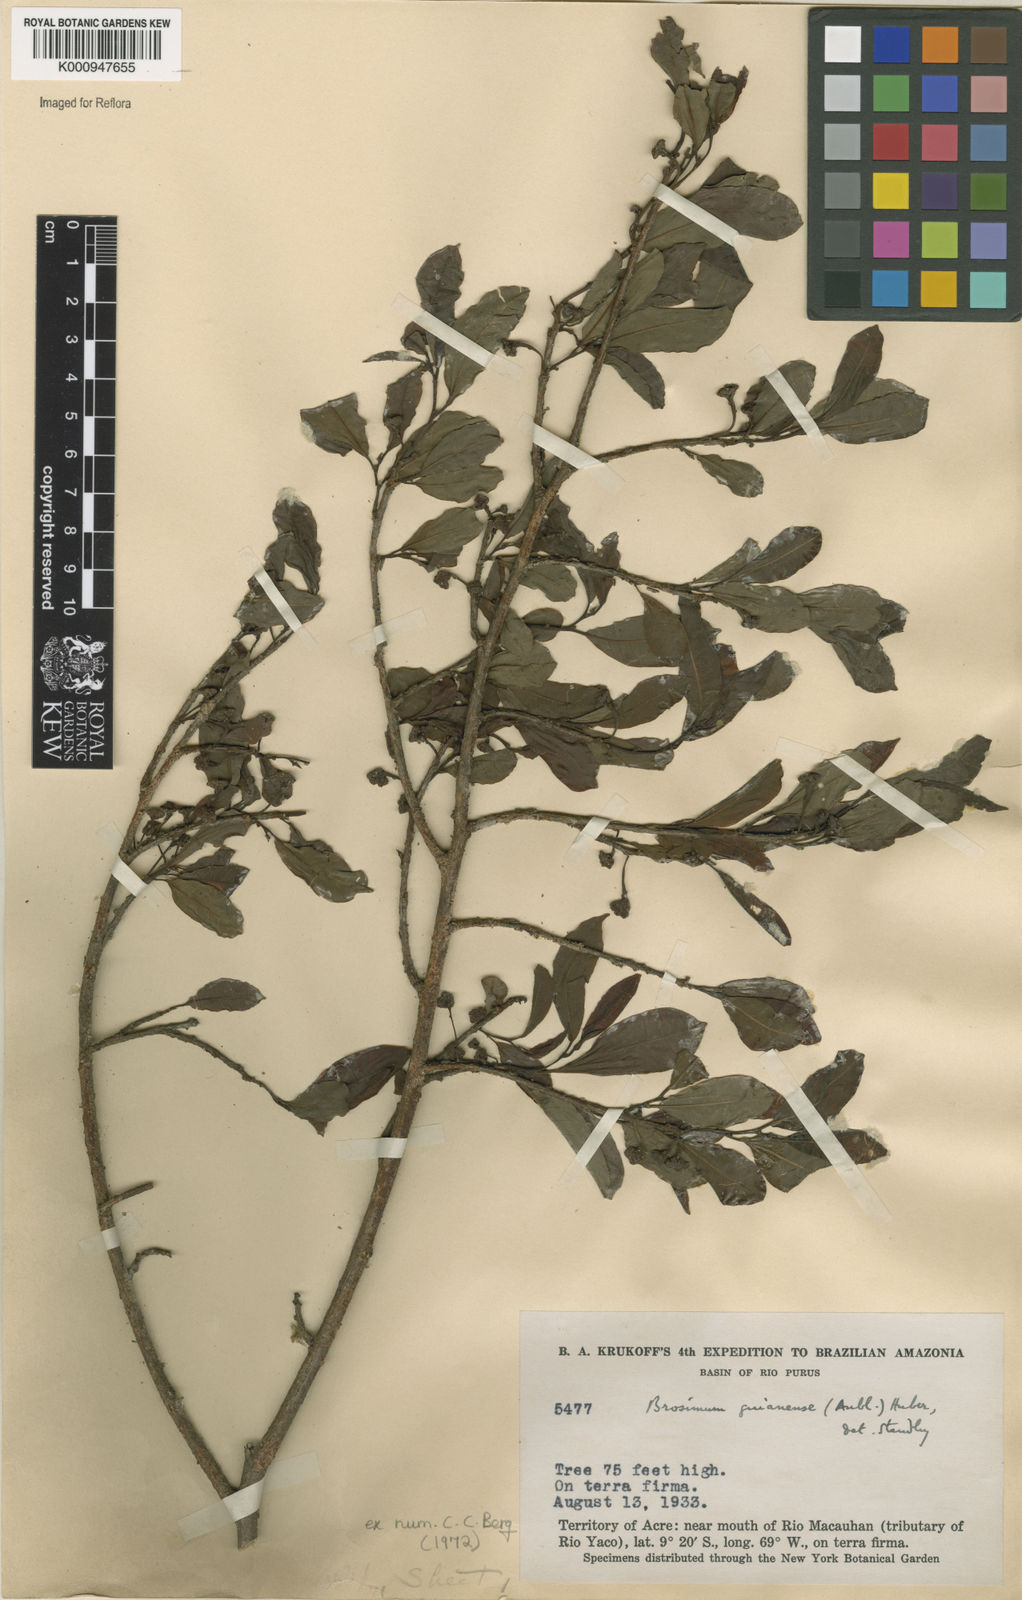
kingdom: Plantae
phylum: Tracheophyta
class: Magnoliopsida
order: Rosales
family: Moraceae
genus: Brosimum
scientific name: Brosimum
